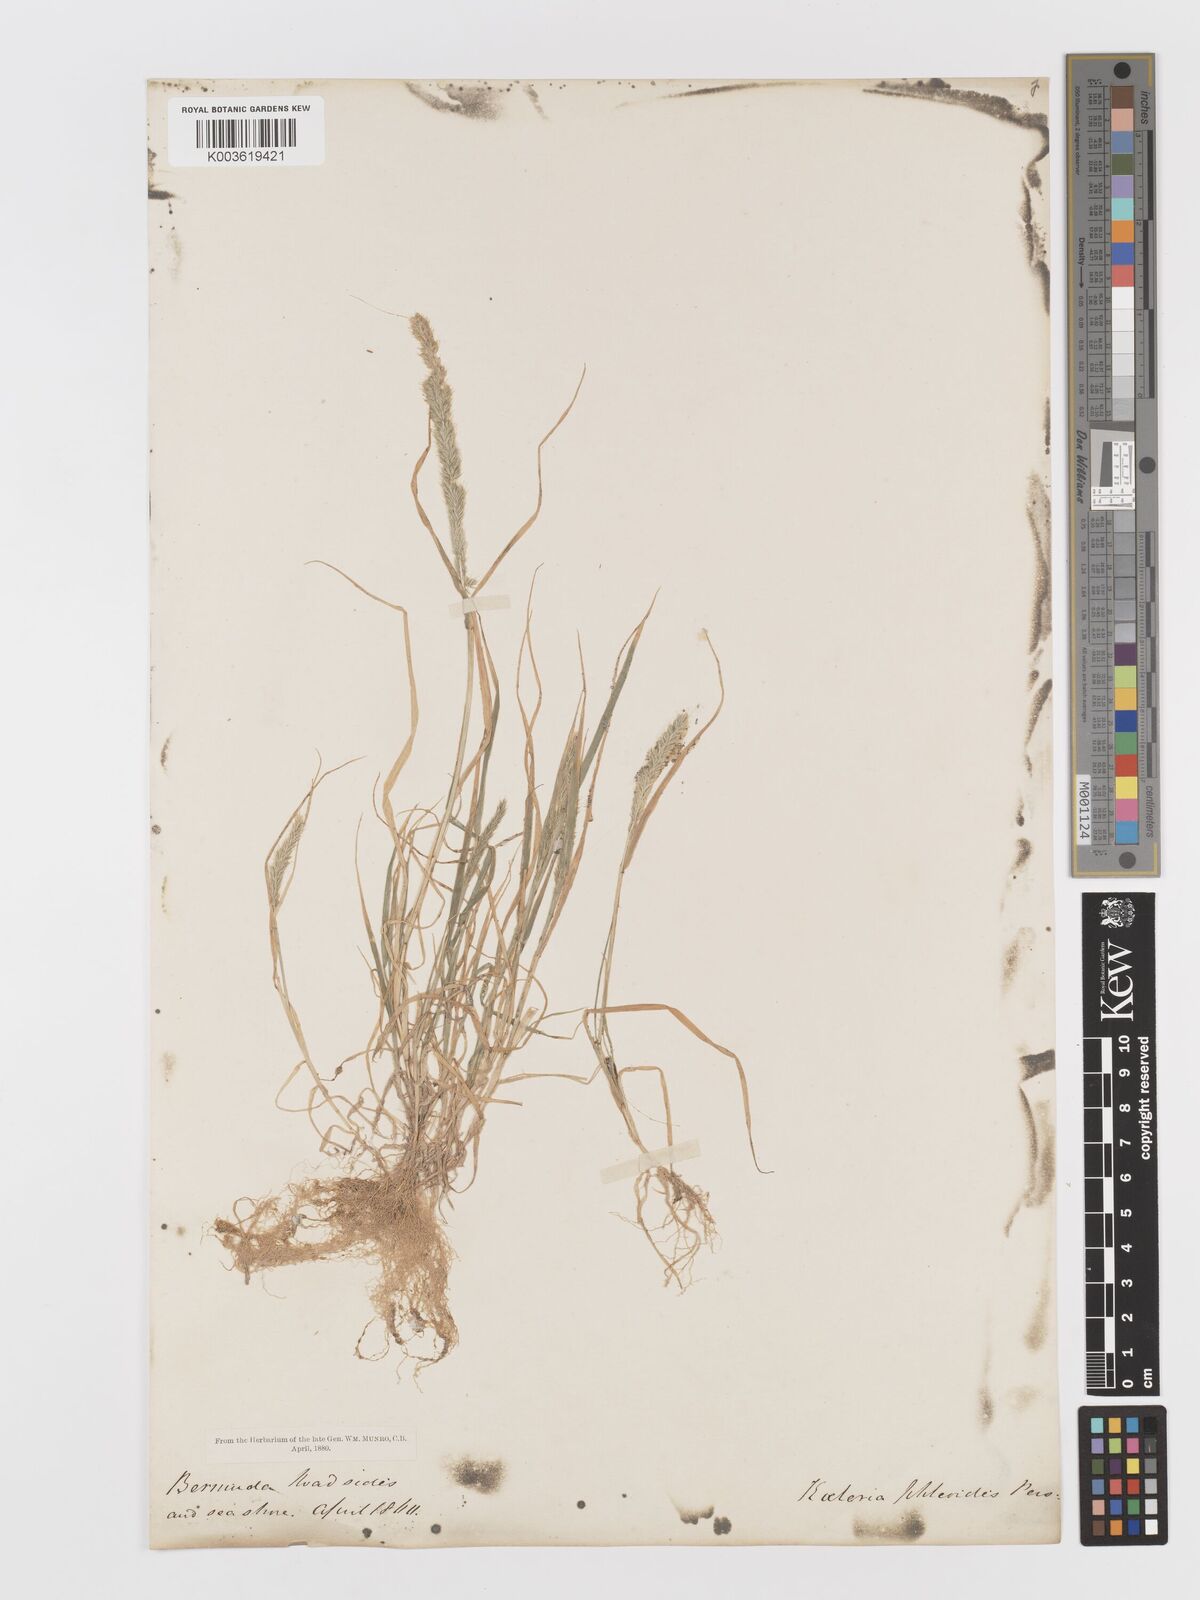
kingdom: Plantae
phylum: Tracheophyta
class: Liliopsida
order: Poales
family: Poaceae
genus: Rostraria
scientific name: Rostraria cristata
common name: Mediterranean hair-grass
